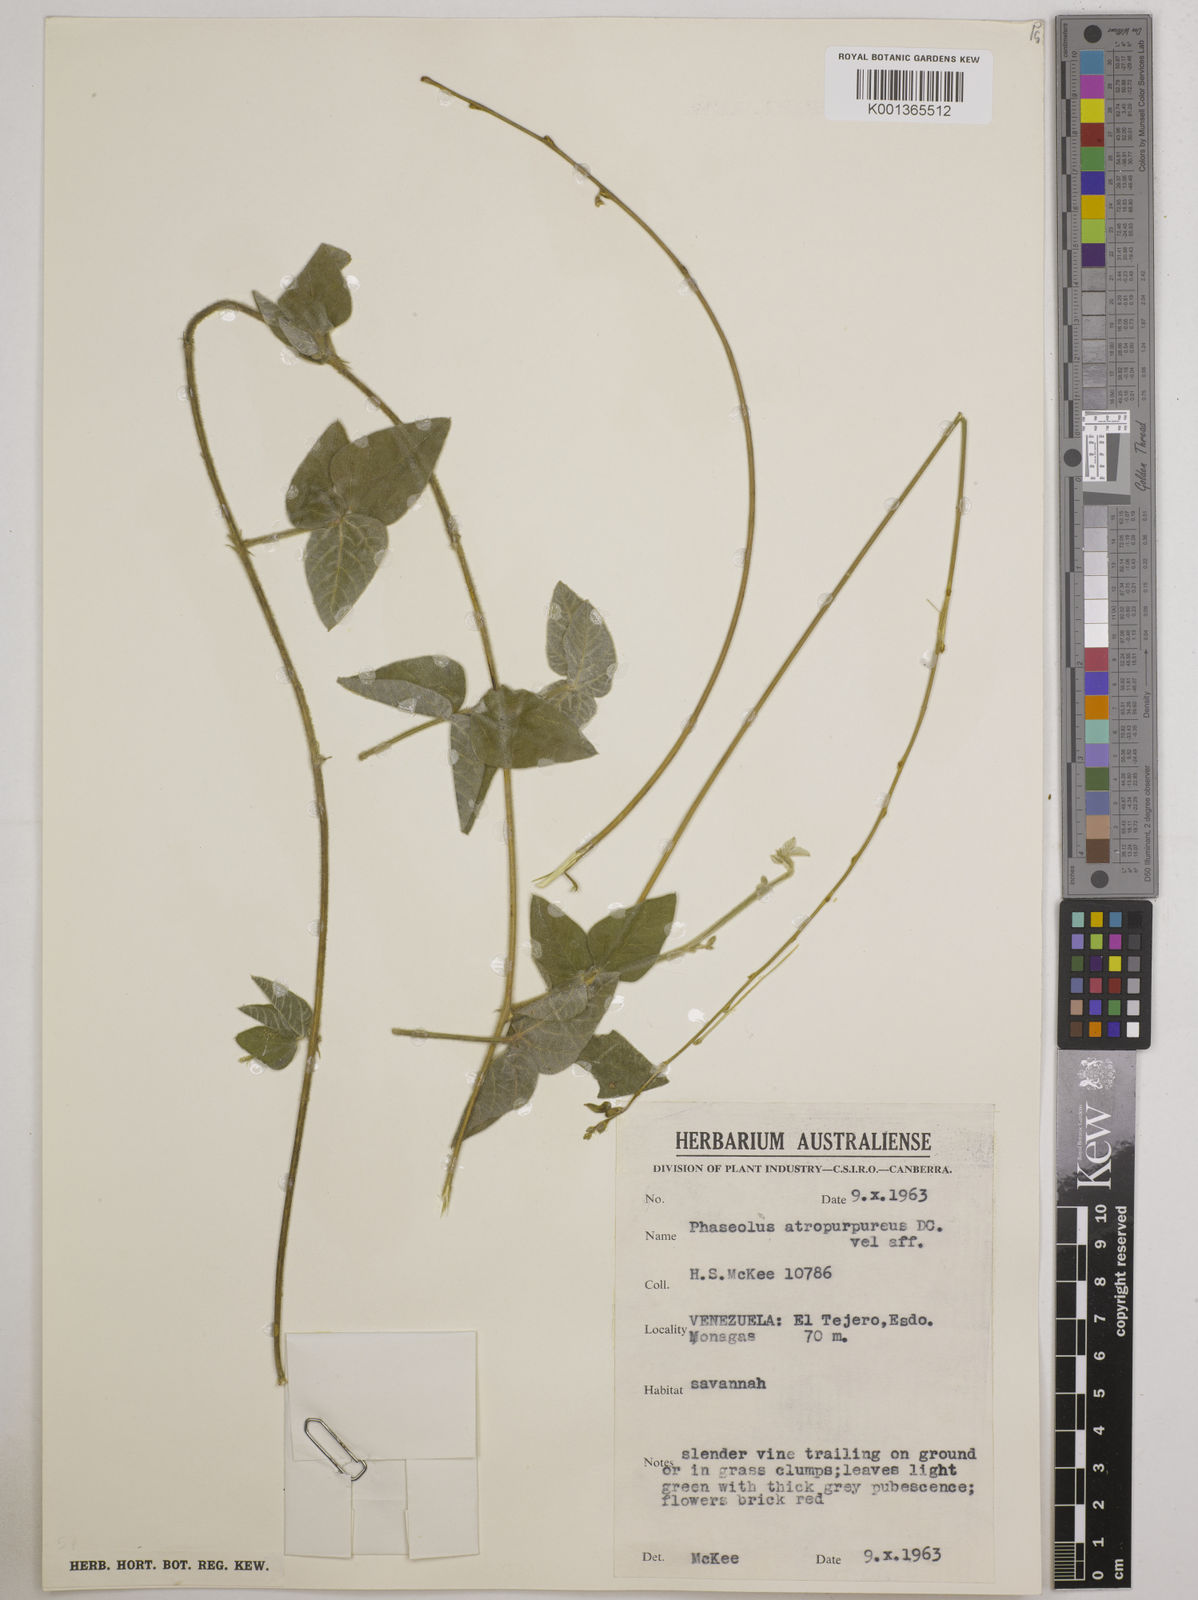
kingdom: Plantae
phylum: Tracheophyta
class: Magnoliopsida
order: Fabales
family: Fabaceae
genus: Macroptilium
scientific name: Macroptilium atropurpureum
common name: Purple bushbean
